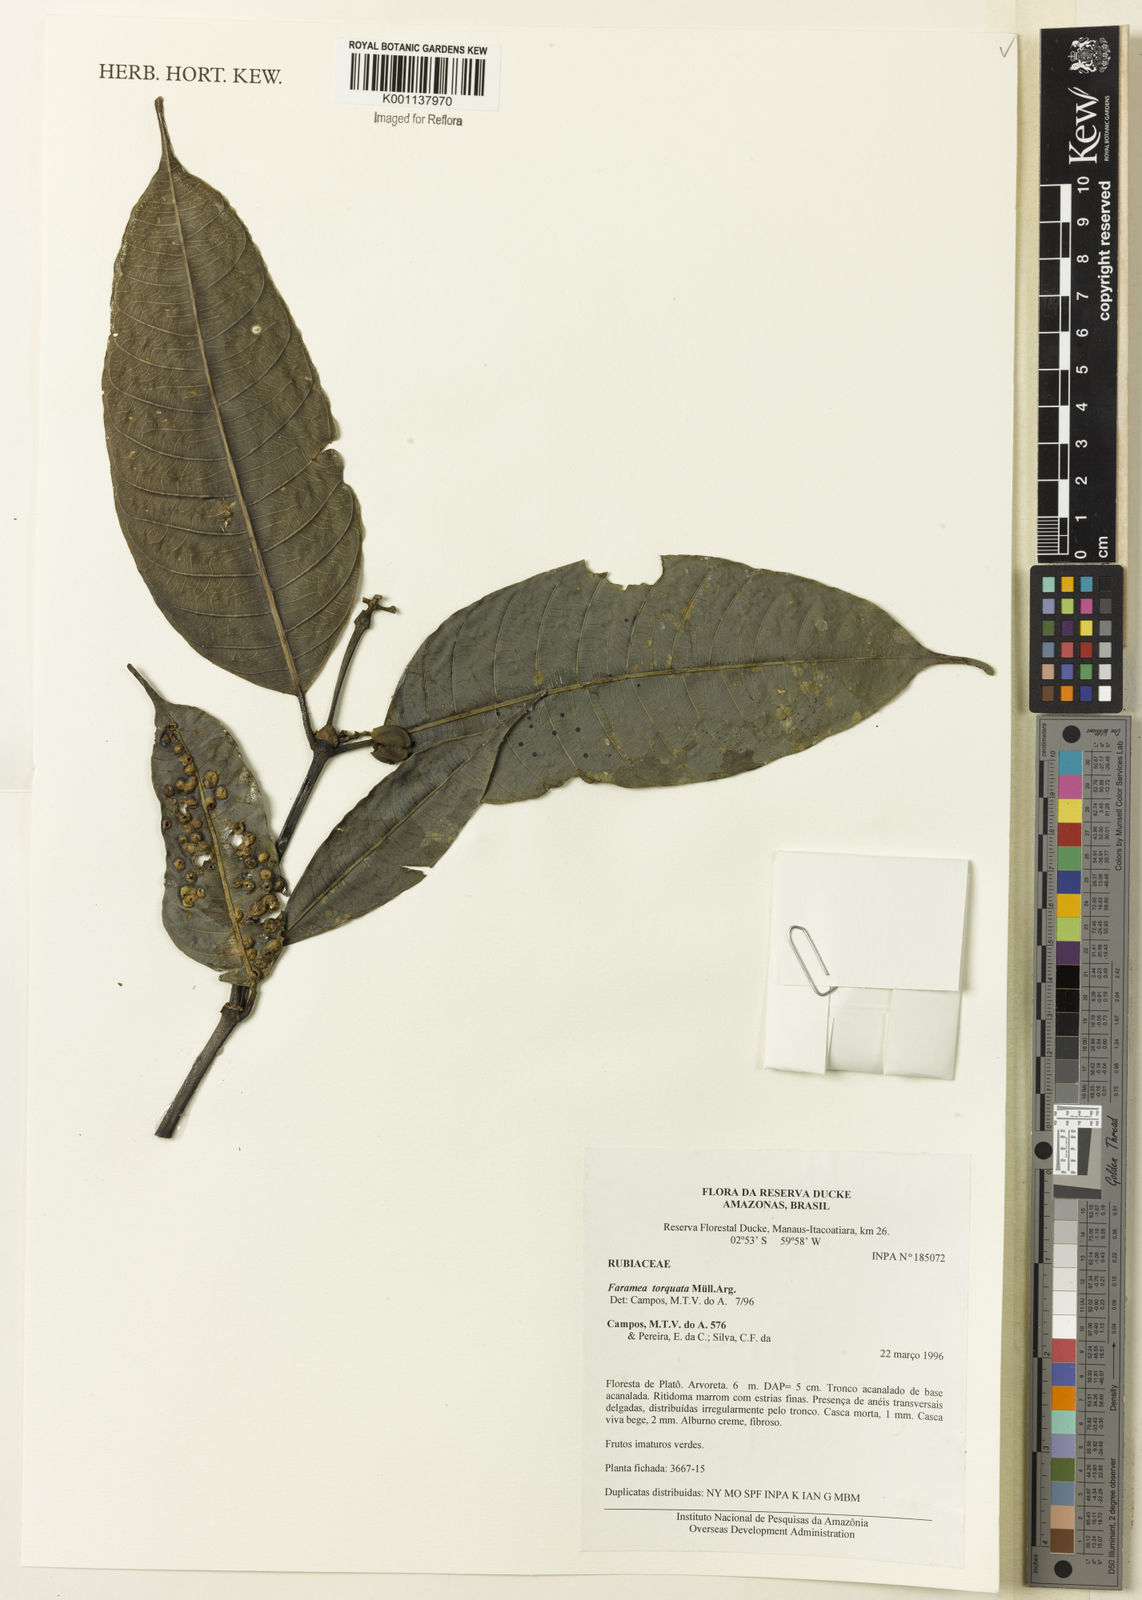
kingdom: Plantae
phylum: Tracheophyta
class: Magnoliopsida
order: Gentianales
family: Rubiaceae
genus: Faramea
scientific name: Faramea
